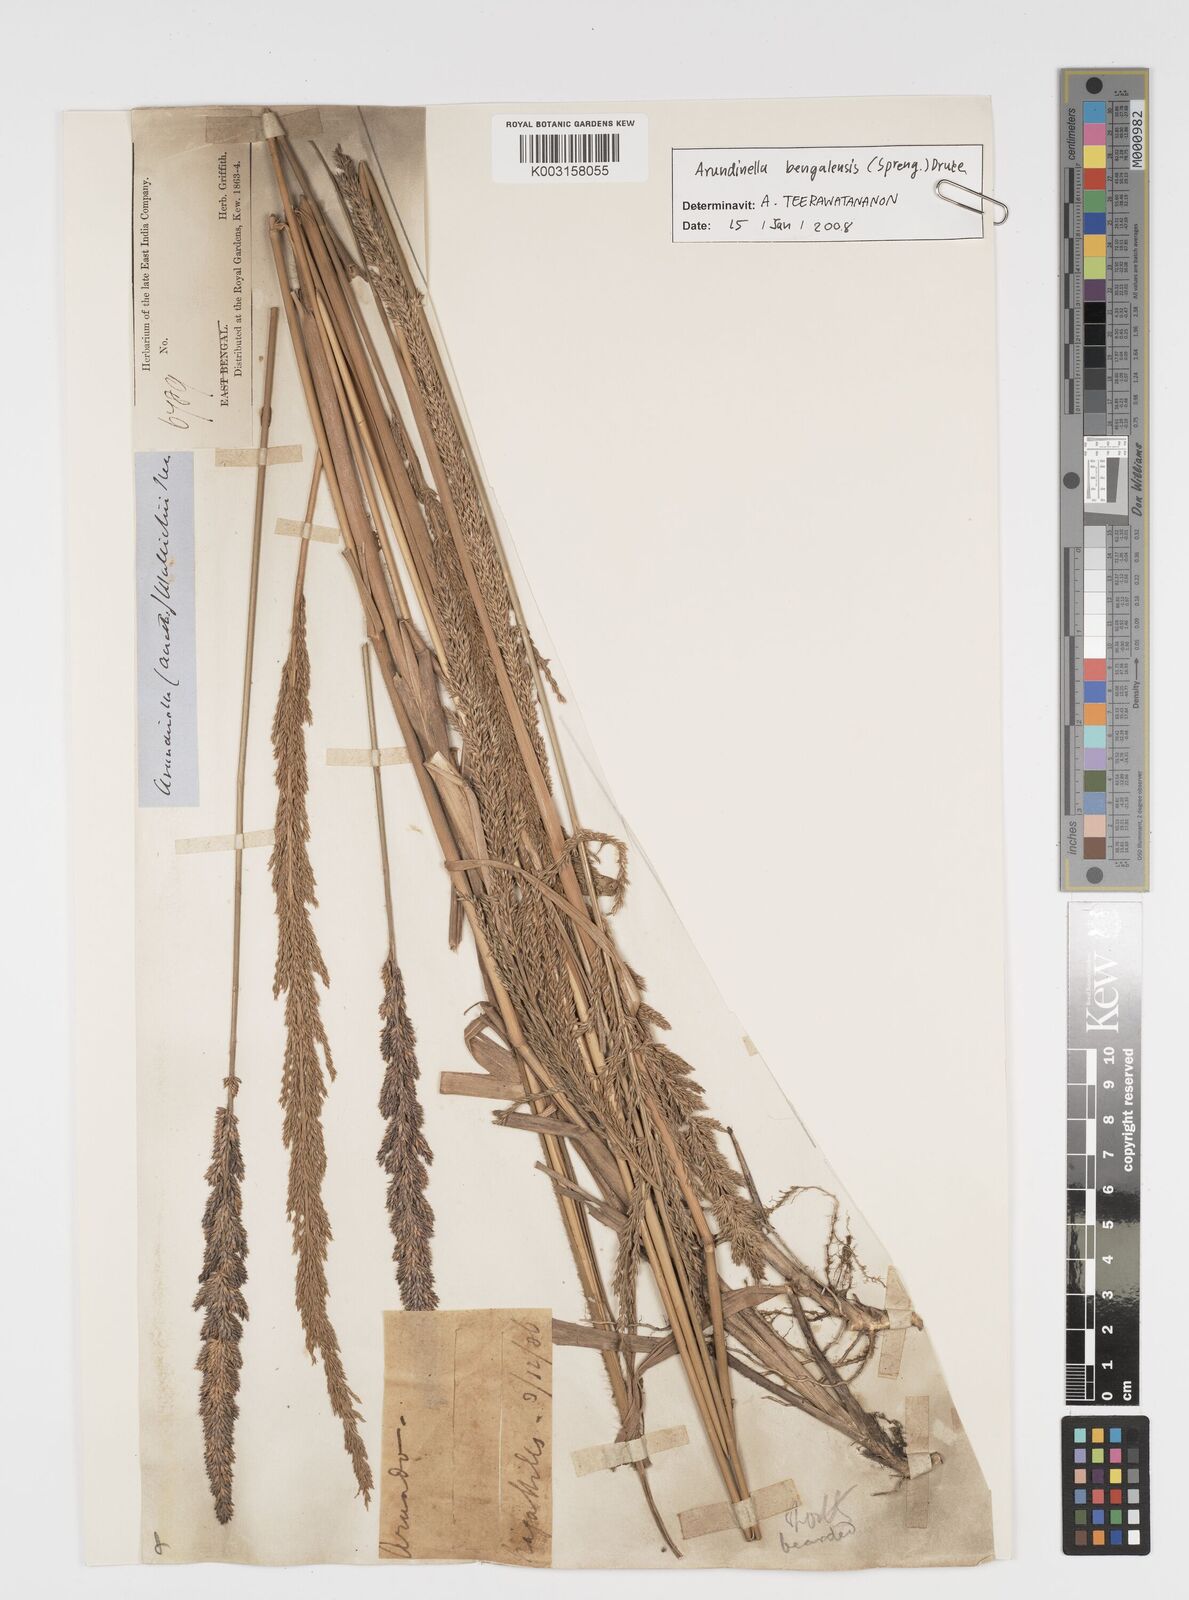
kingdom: Plantae
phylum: Tracheophyta
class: Liliopsida
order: Poales
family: Poaceae
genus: Arundinella
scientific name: Arundinella bengalensis
